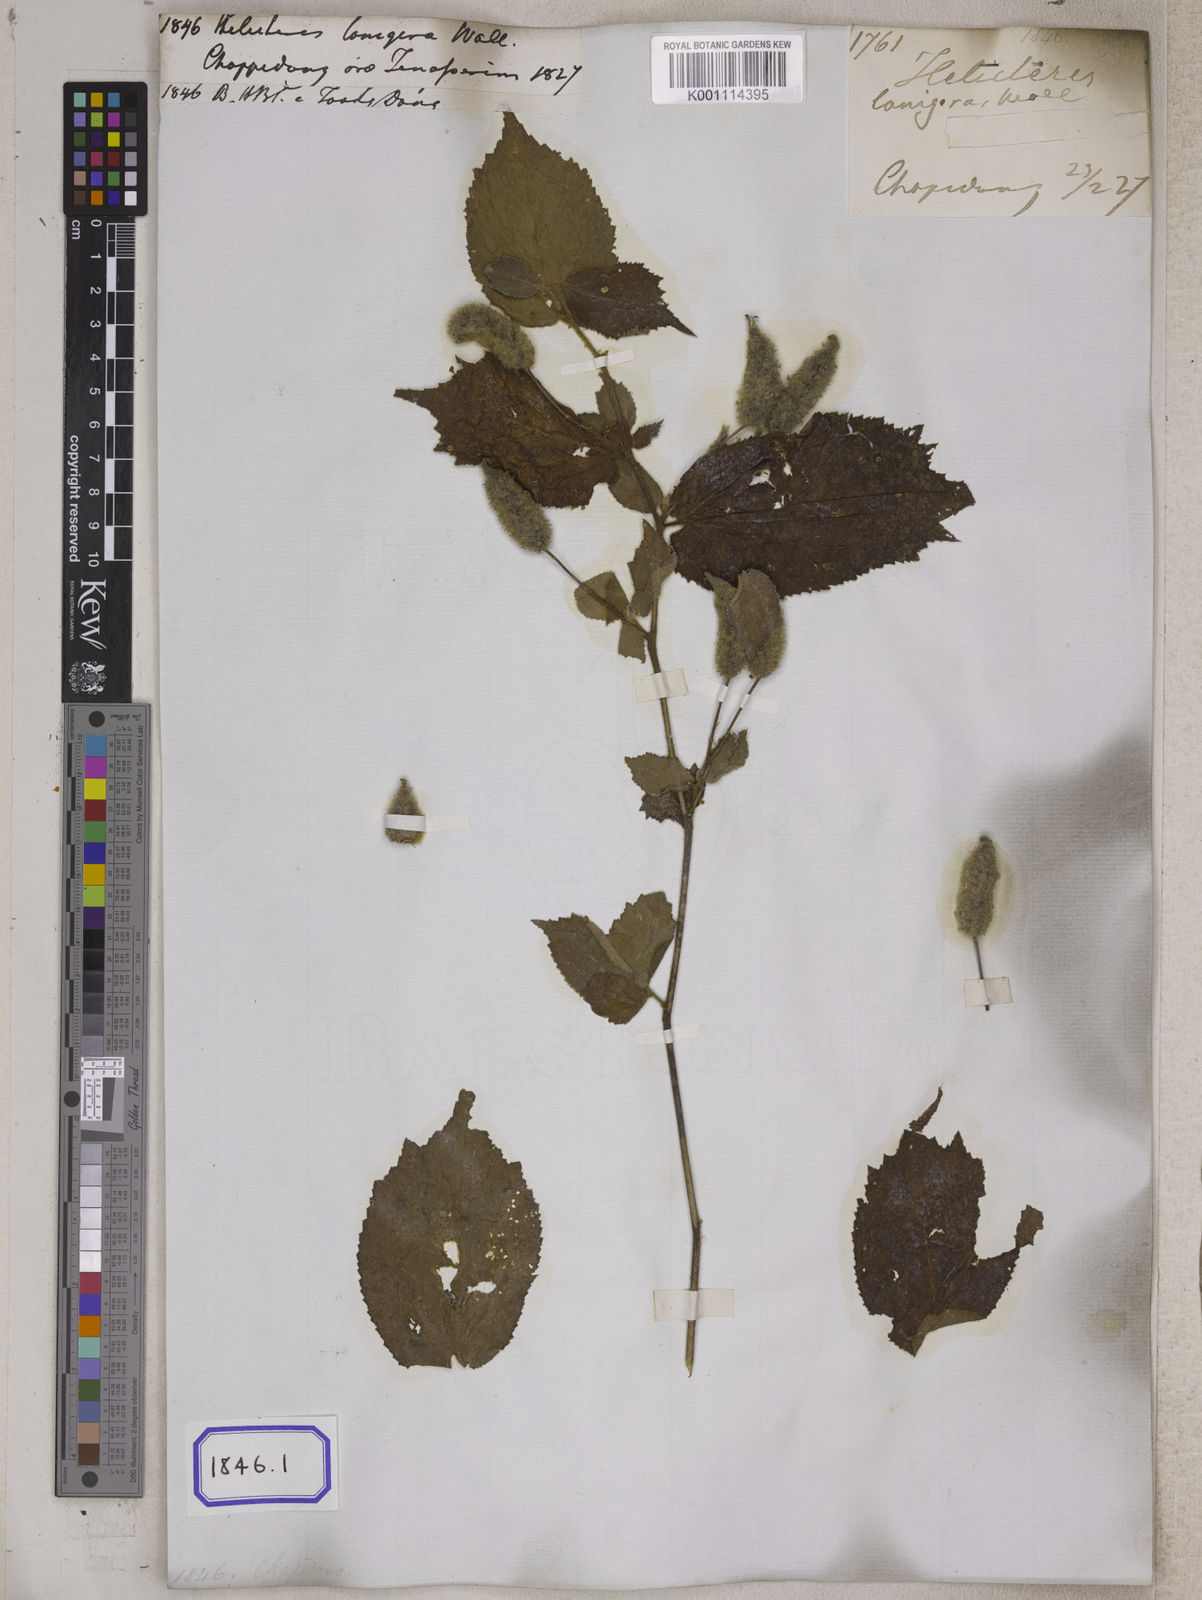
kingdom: Plantae
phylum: Tracheophyta
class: Magnoliopsida
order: Malvales
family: Malvaceae
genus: Helicteres
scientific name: Helicteres hirsuta
